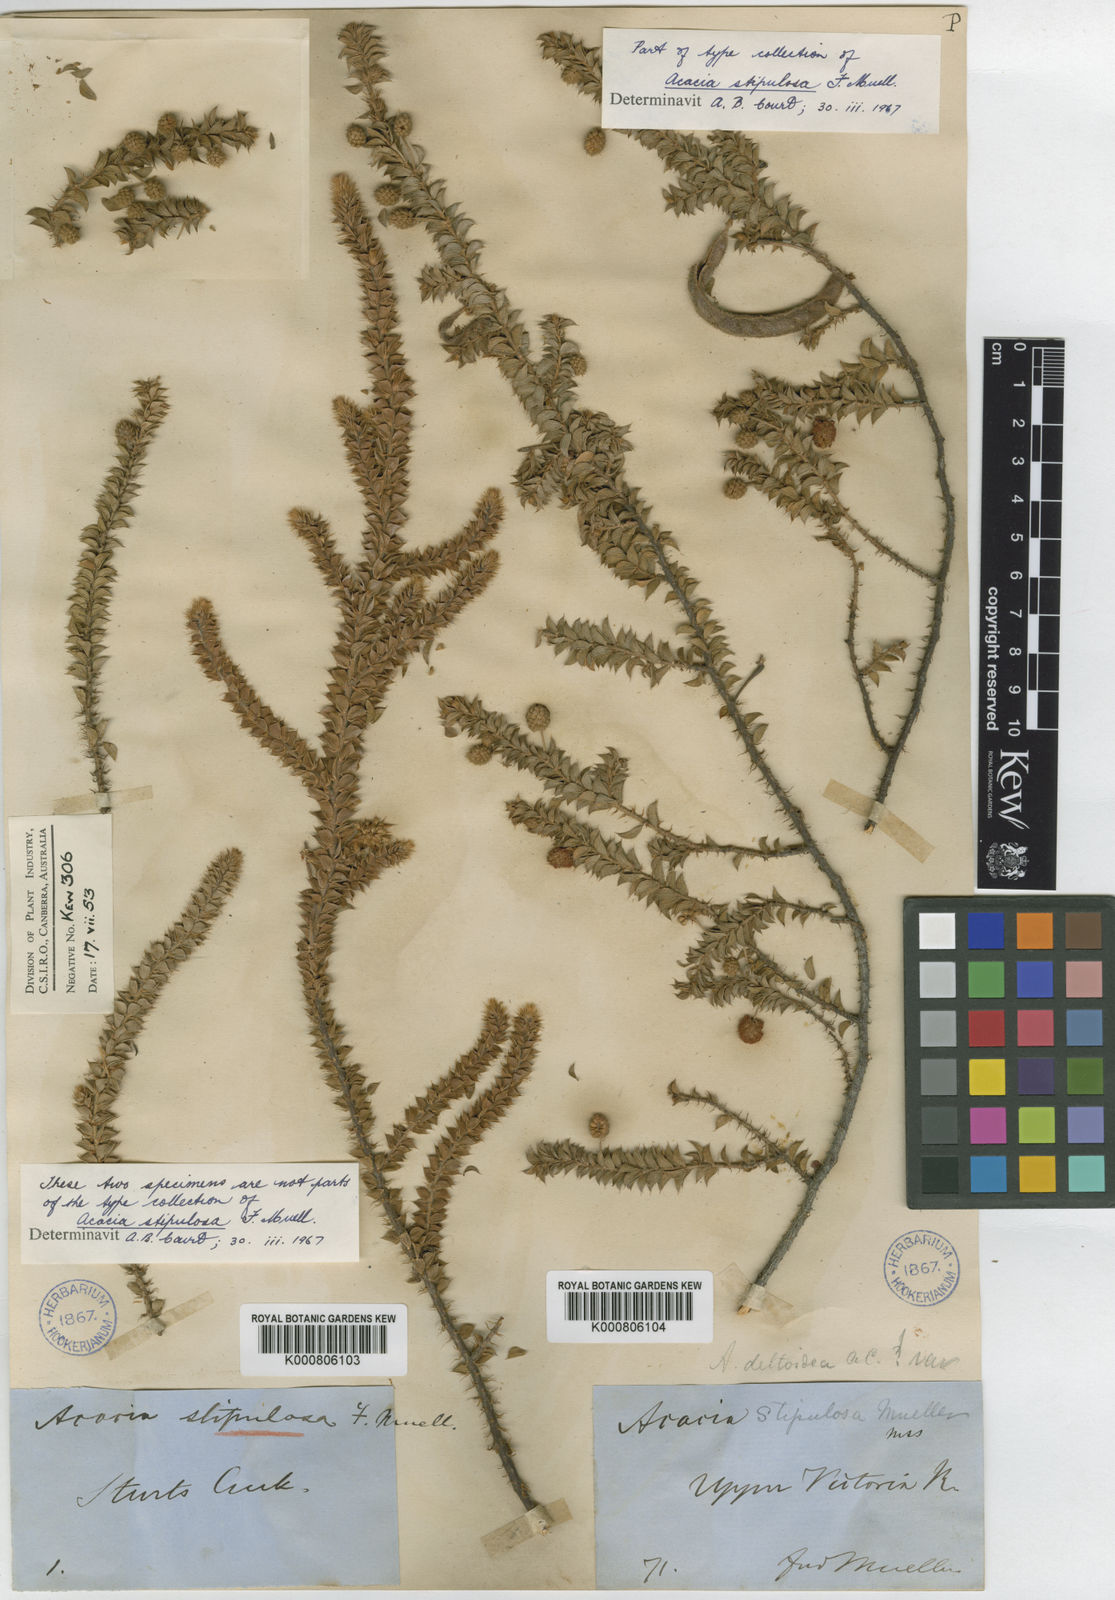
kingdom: Plantae
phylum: Tracheophyta
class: Magnoliopsida
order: Fabales
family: Fabaceae
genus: Acacia
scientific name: Acacia stipulosa
